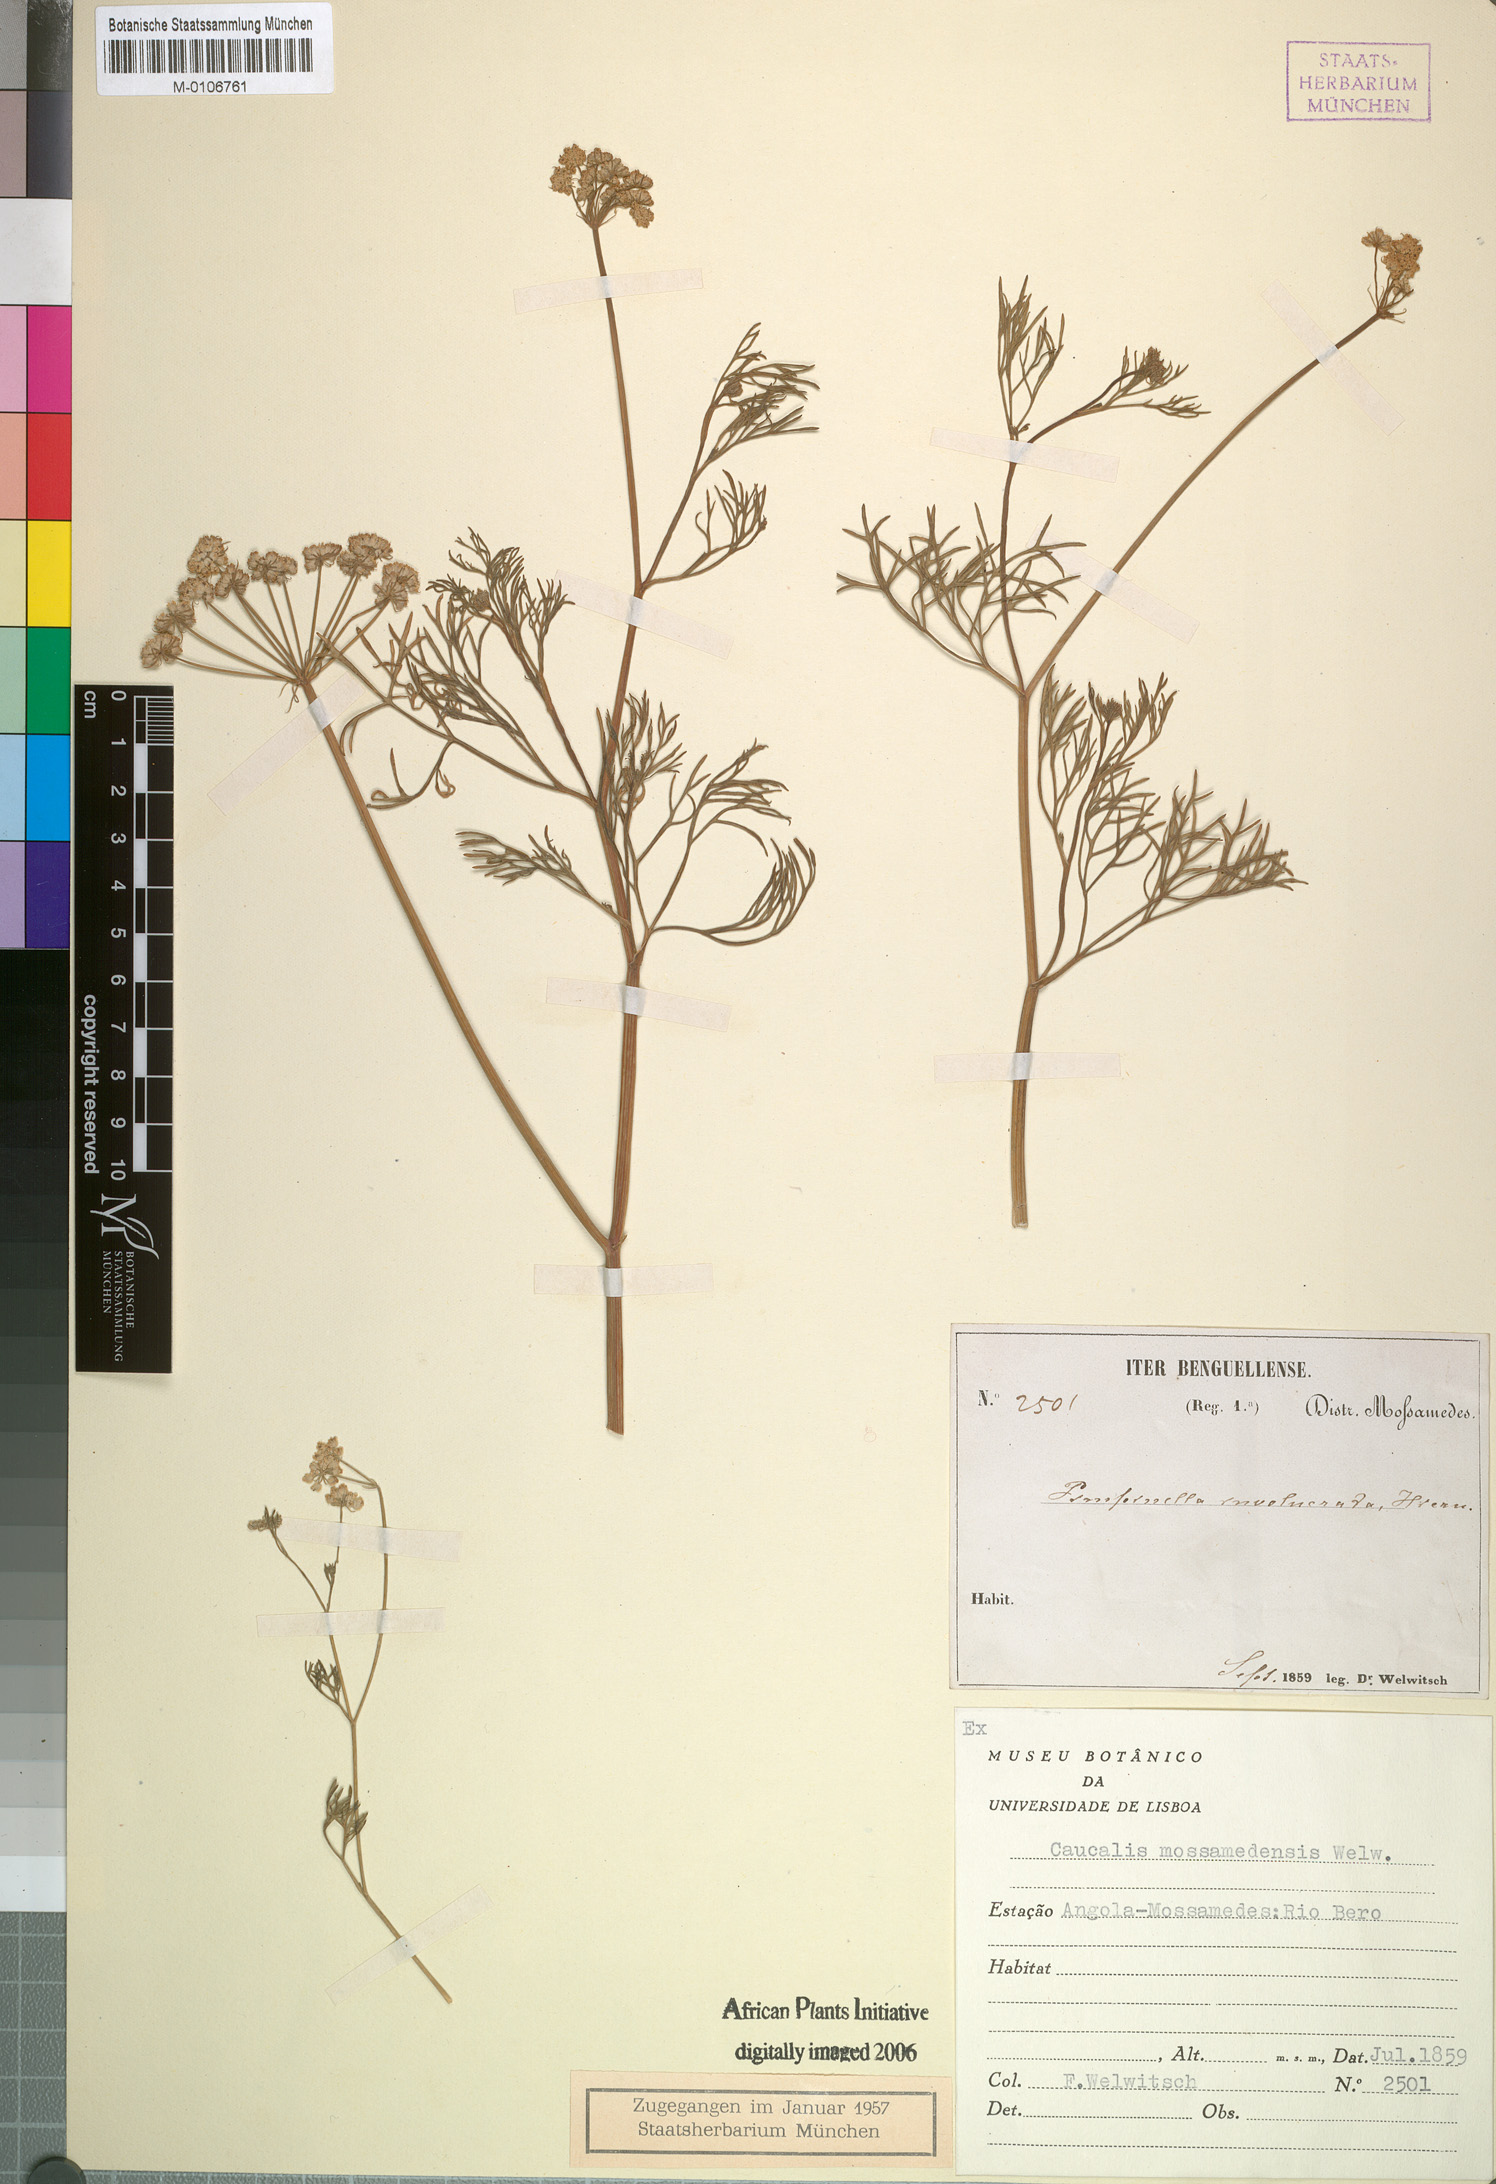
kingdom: Plantae
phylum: Tracheophyta
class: Magnoliopsida
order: Apiales
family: Apiaceae
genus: Angoseseli
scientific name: Angoseseli mossamedensis
